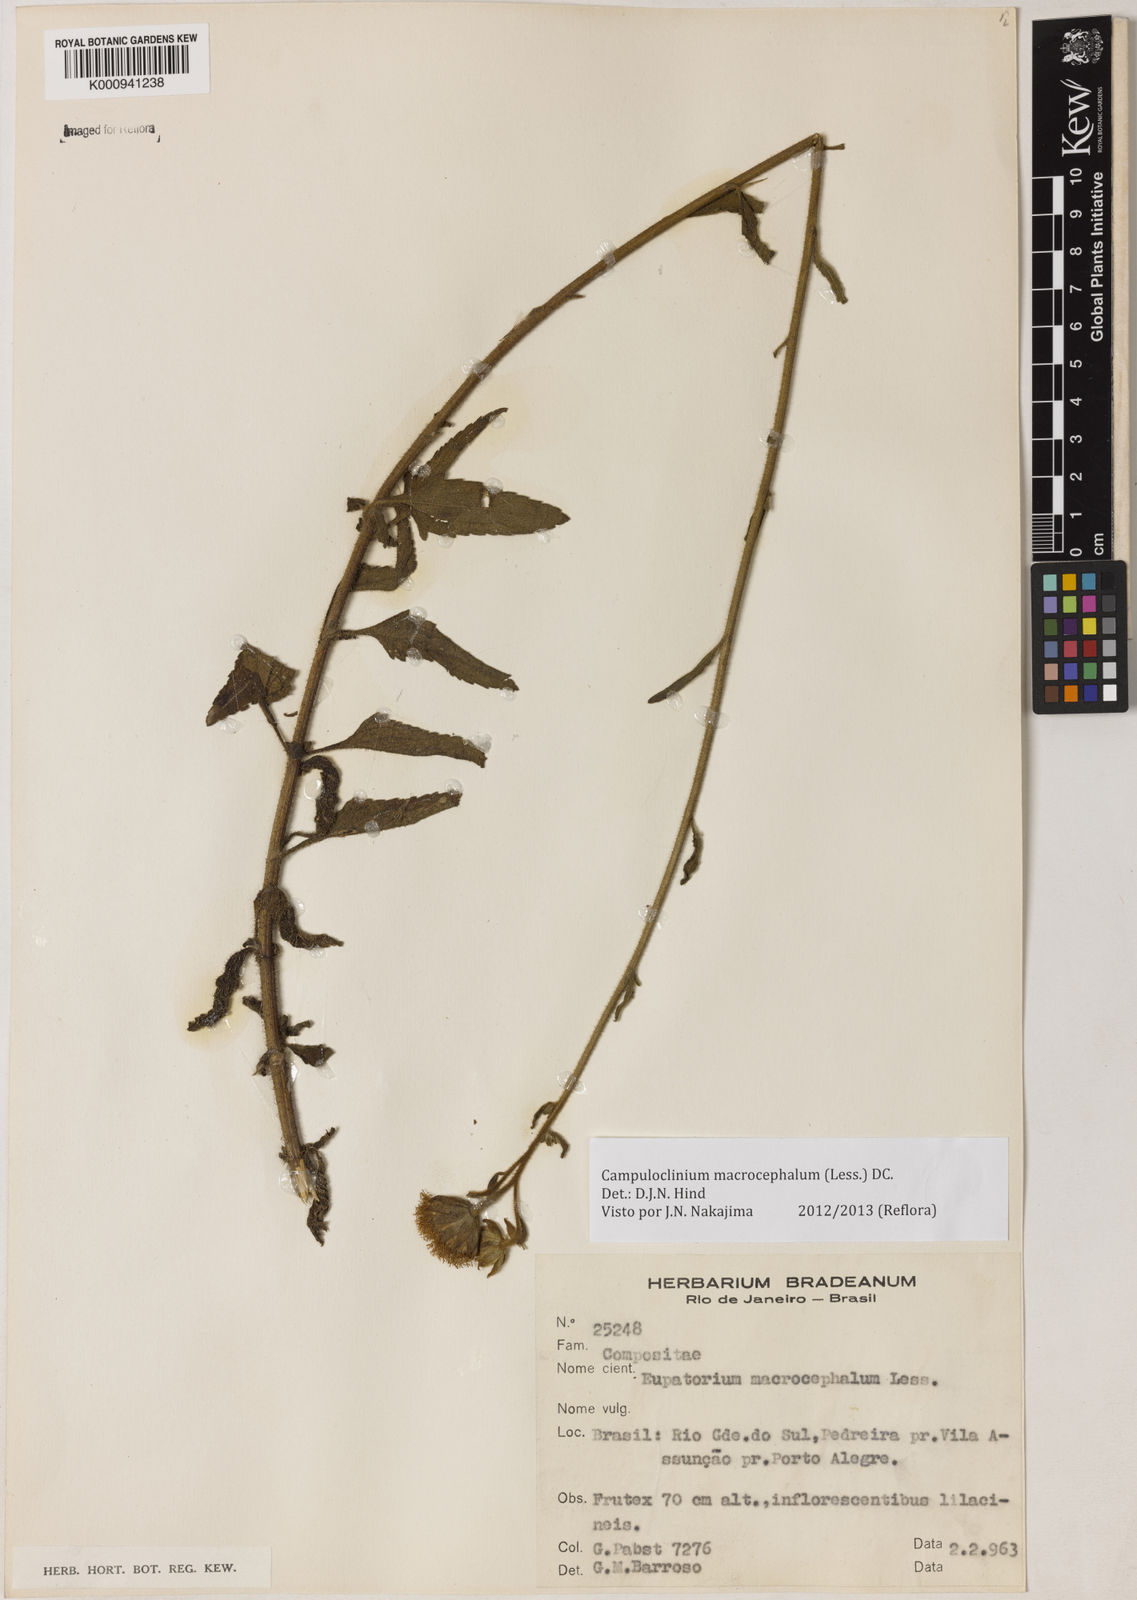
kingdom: Plantae
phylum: Tracheophyta
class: Magnoliopsida
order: Asterales
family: Asteraceae
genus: Campuloclinium
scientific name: Campuloclinium macrocephalum
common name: Pompomweed
